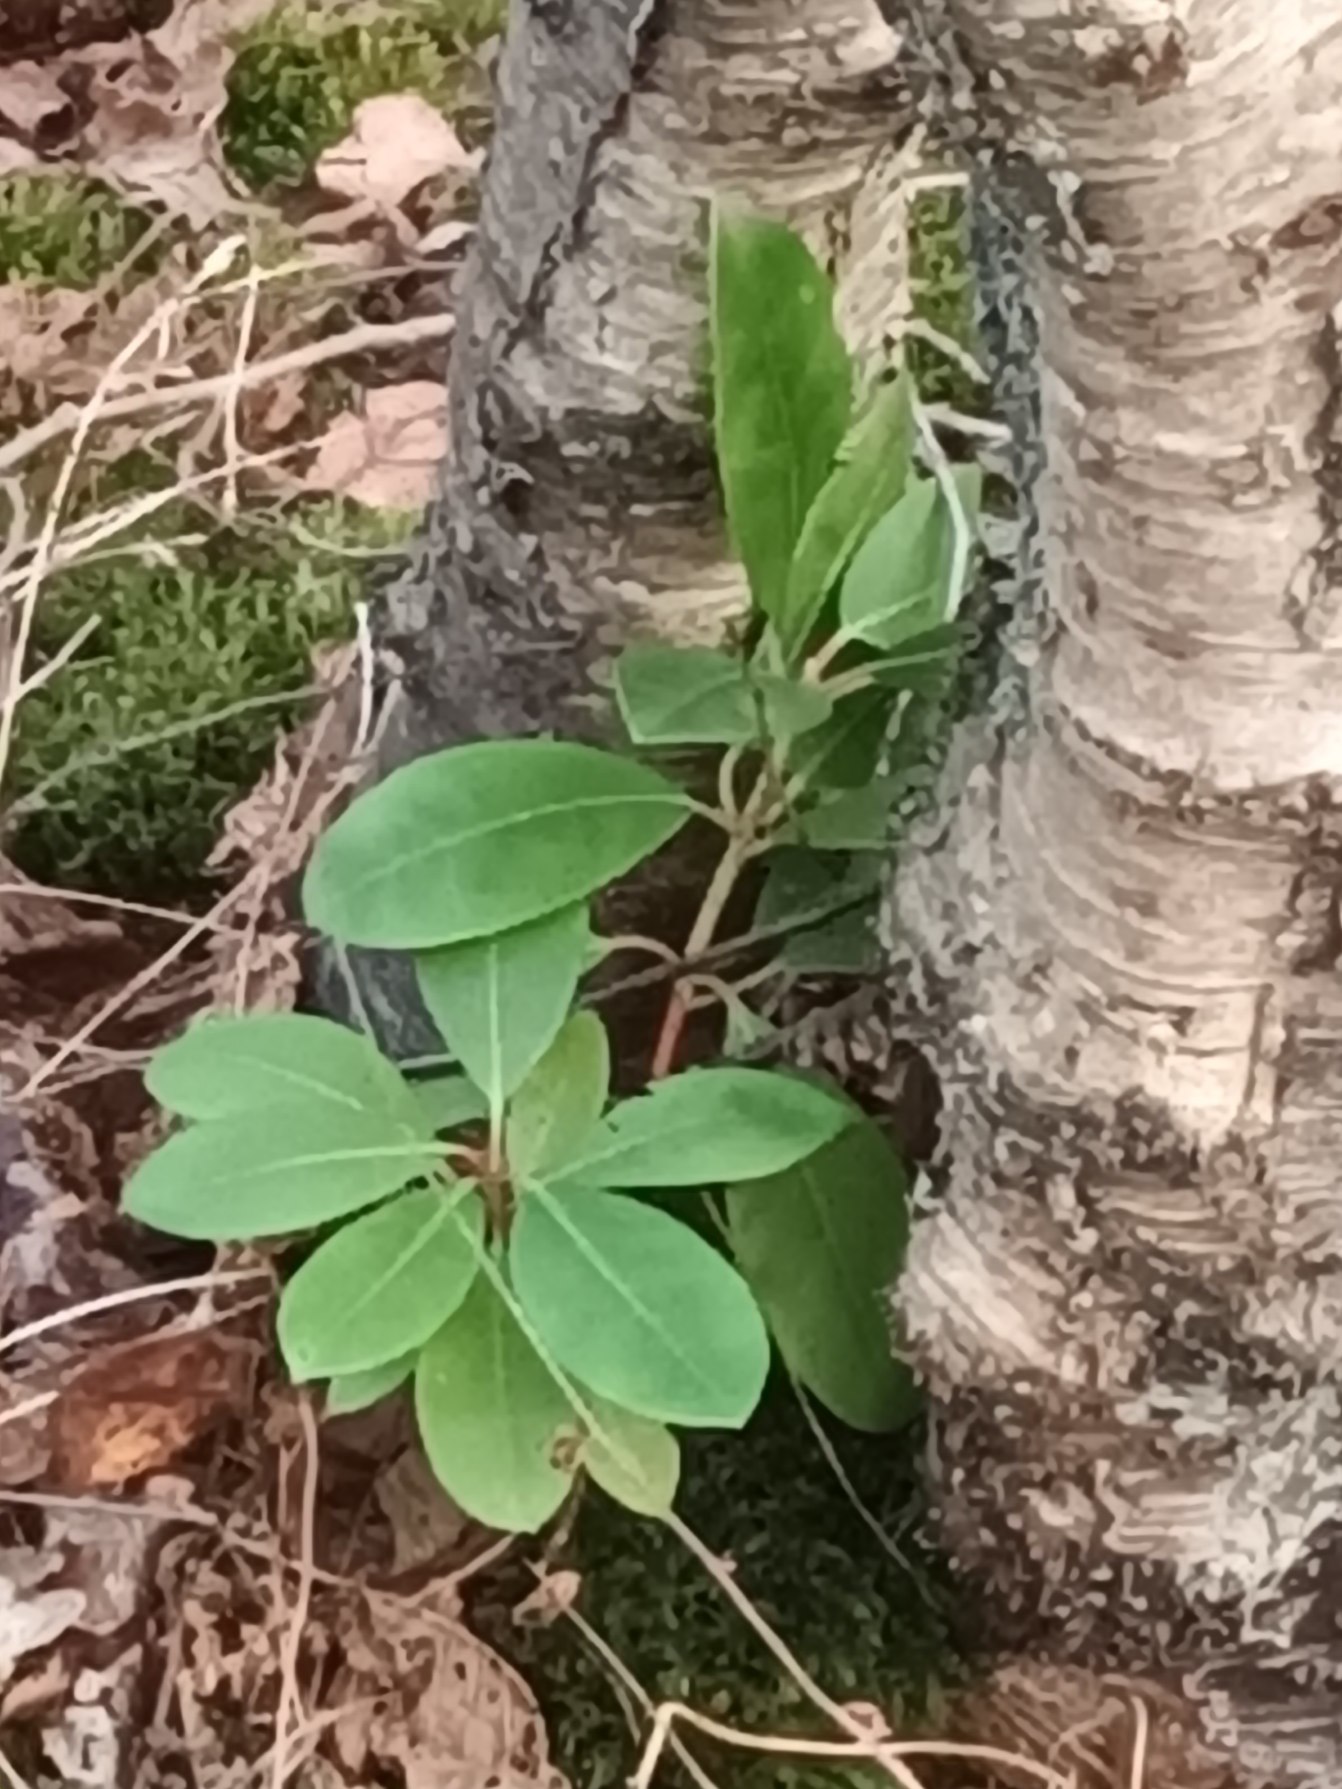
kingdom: Plantae
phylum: Tracheophyta
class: Magnoliopsida
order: Ericales
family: Ericaceae
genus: Rhododendron
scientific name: Rhododendron
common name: Rhododendronslægten
